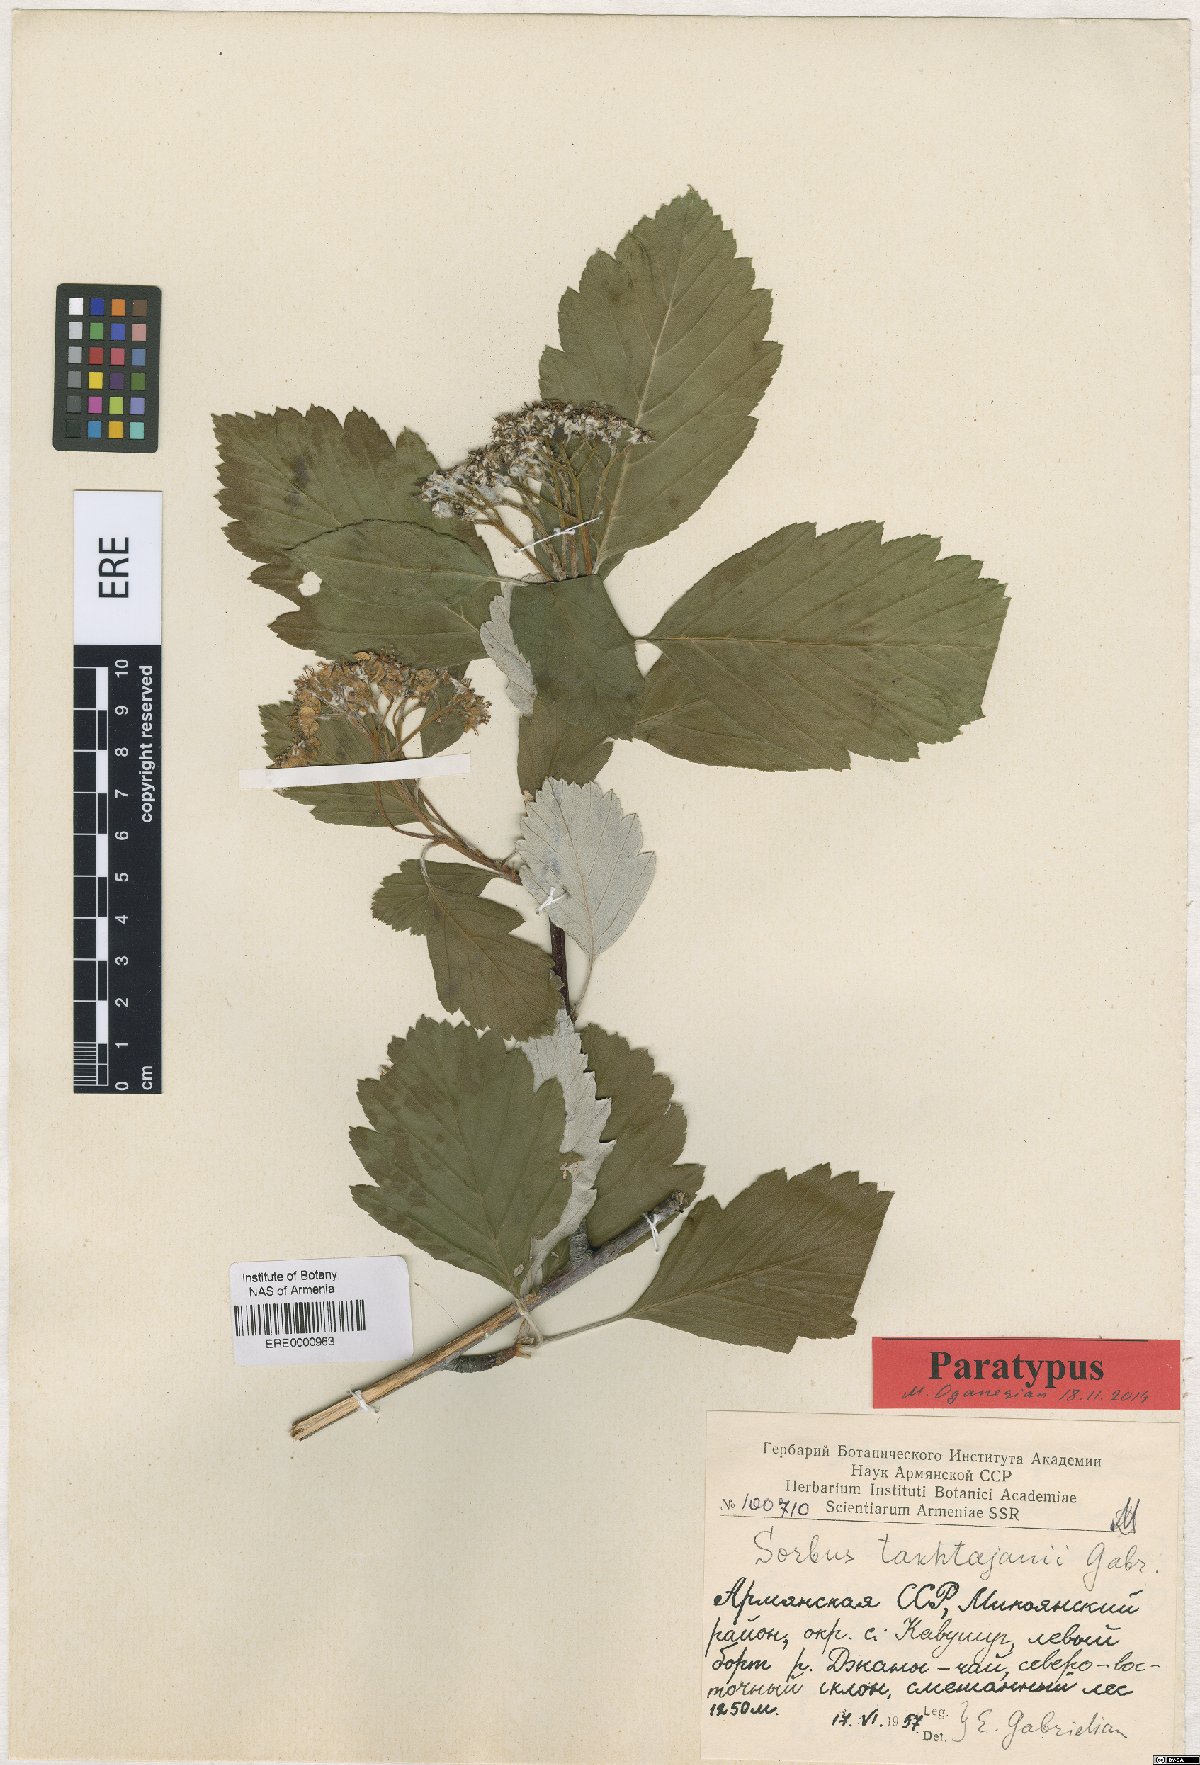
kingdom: Plantae
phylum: Tracheophyta
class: Magnoliopsida
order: Rosales
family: Rosaceae
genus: Hedlundia
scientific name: Hedlundia takhtajanii
